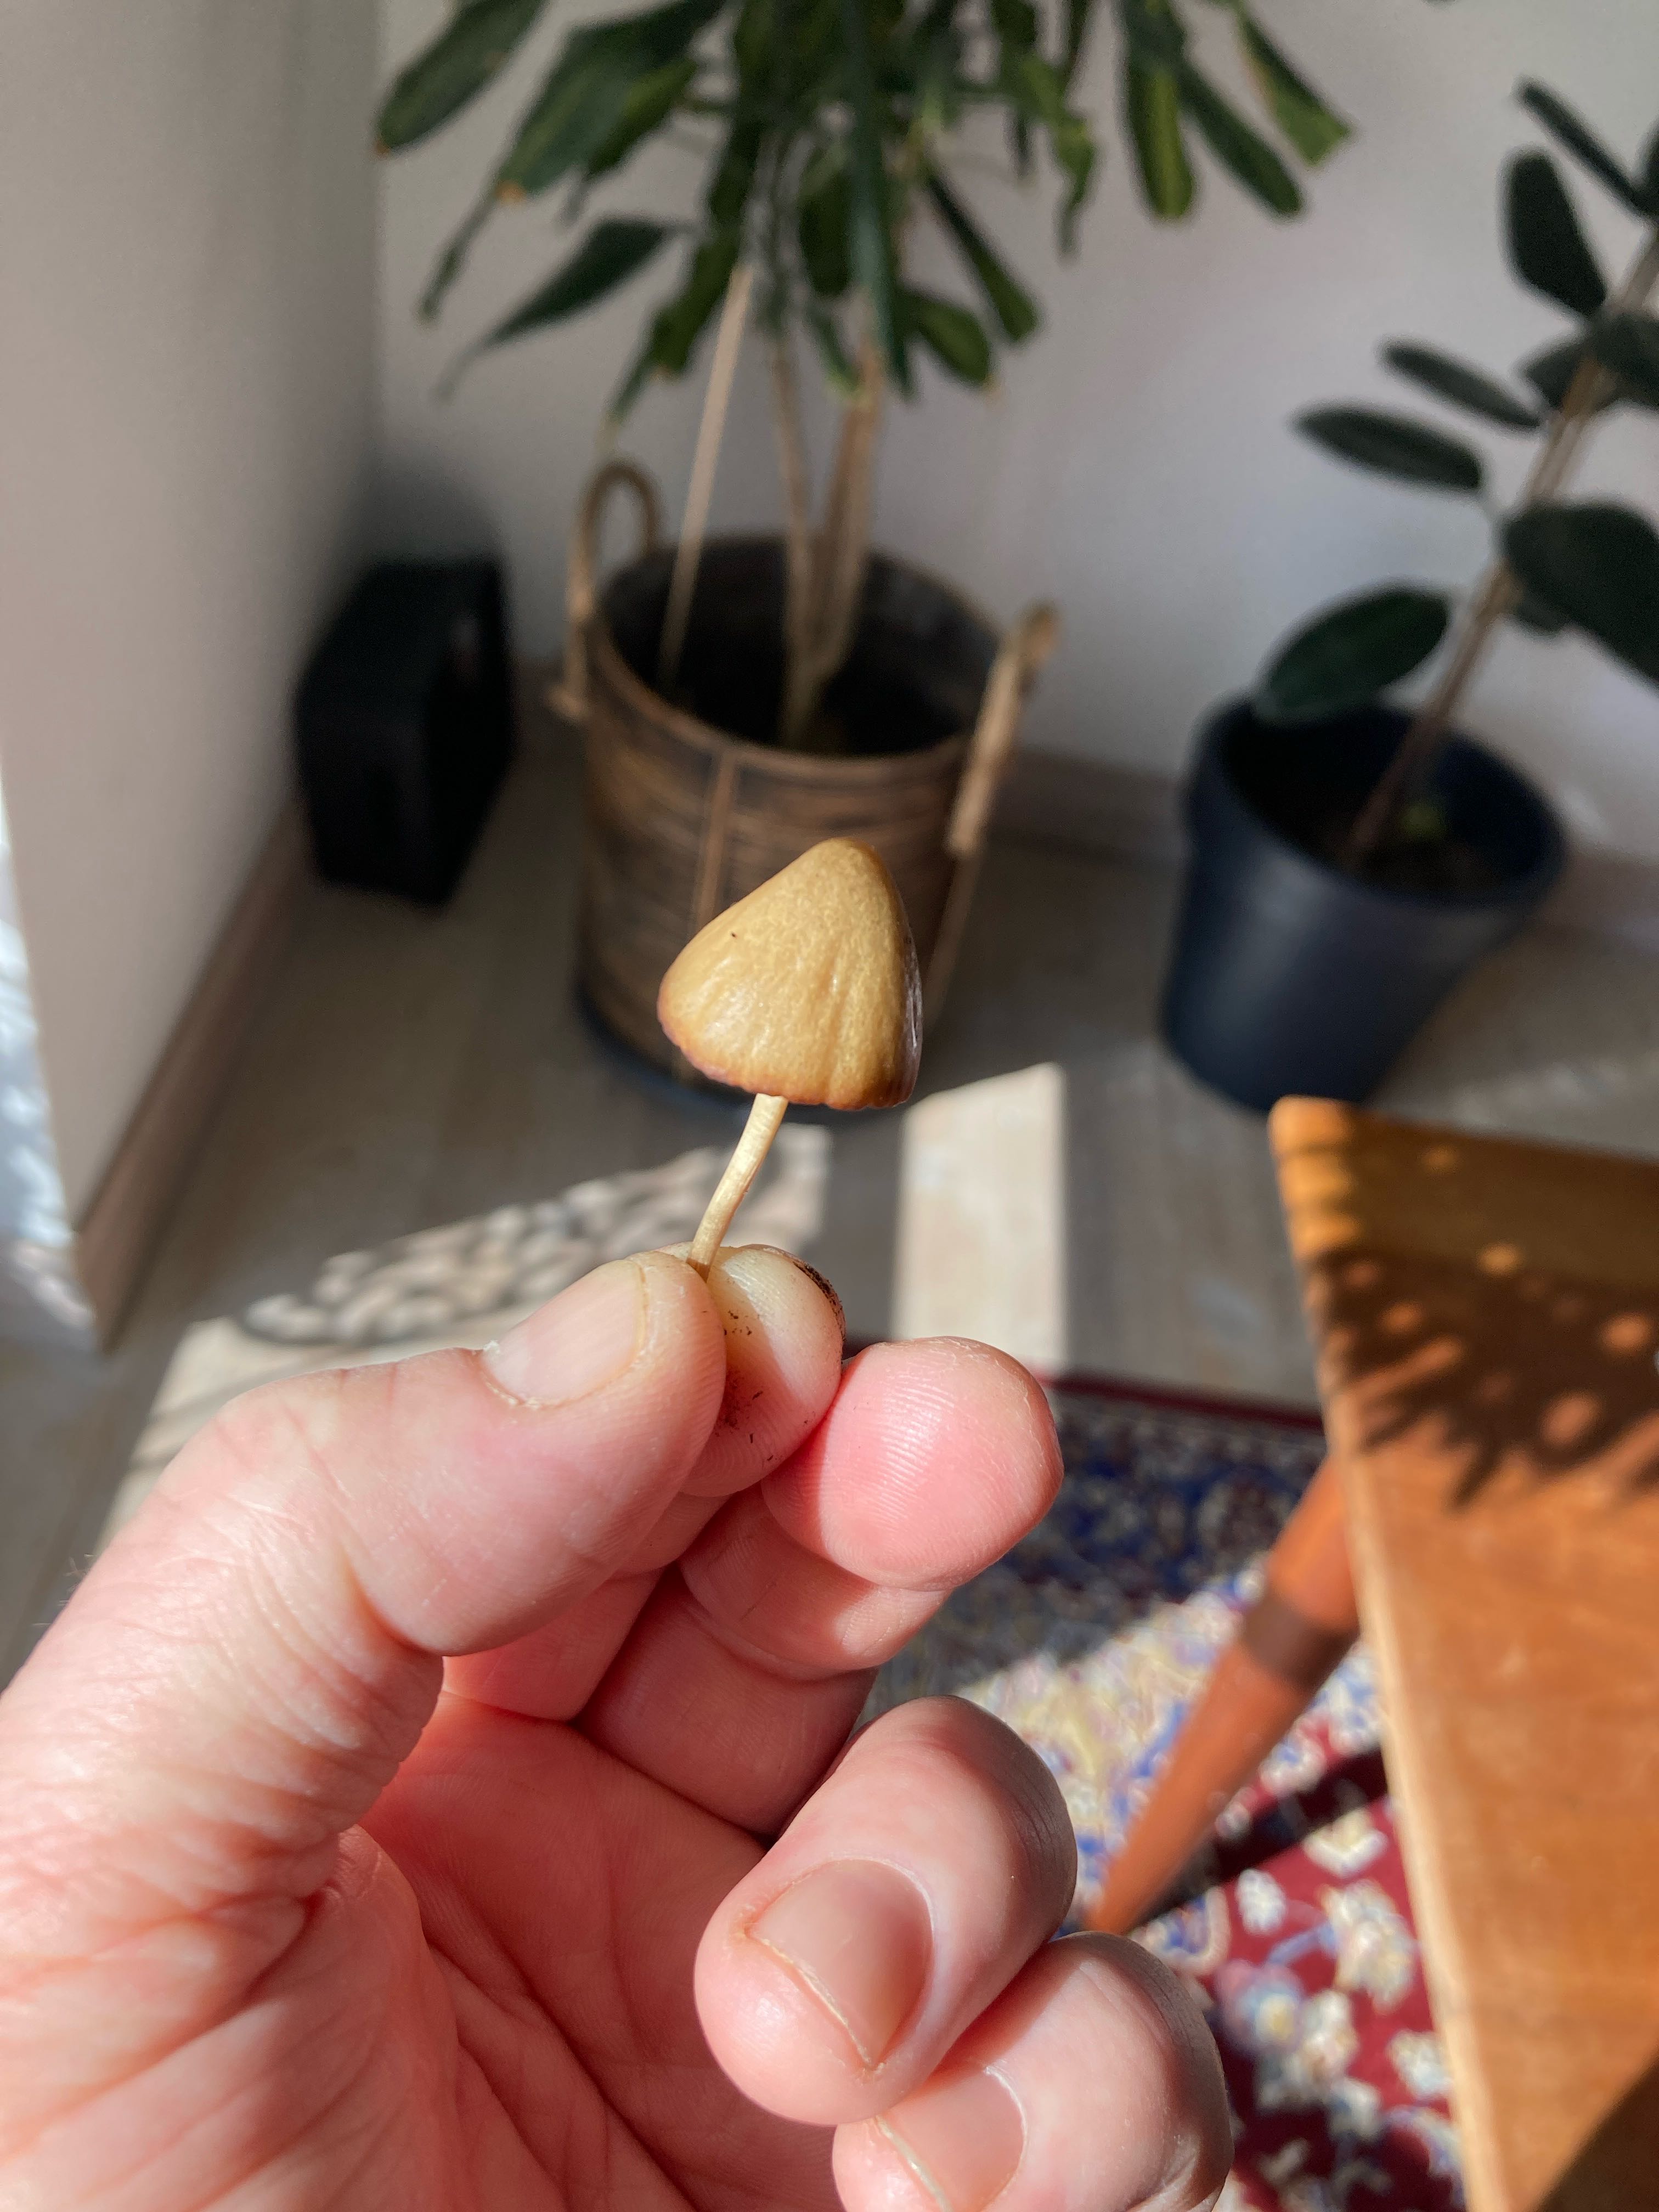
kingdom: Fungi
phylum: Basidiomycota
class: Agaricomycetes
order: Agaricales
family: Bolbitiaceae
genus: Conocybe
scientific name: Conocybe
